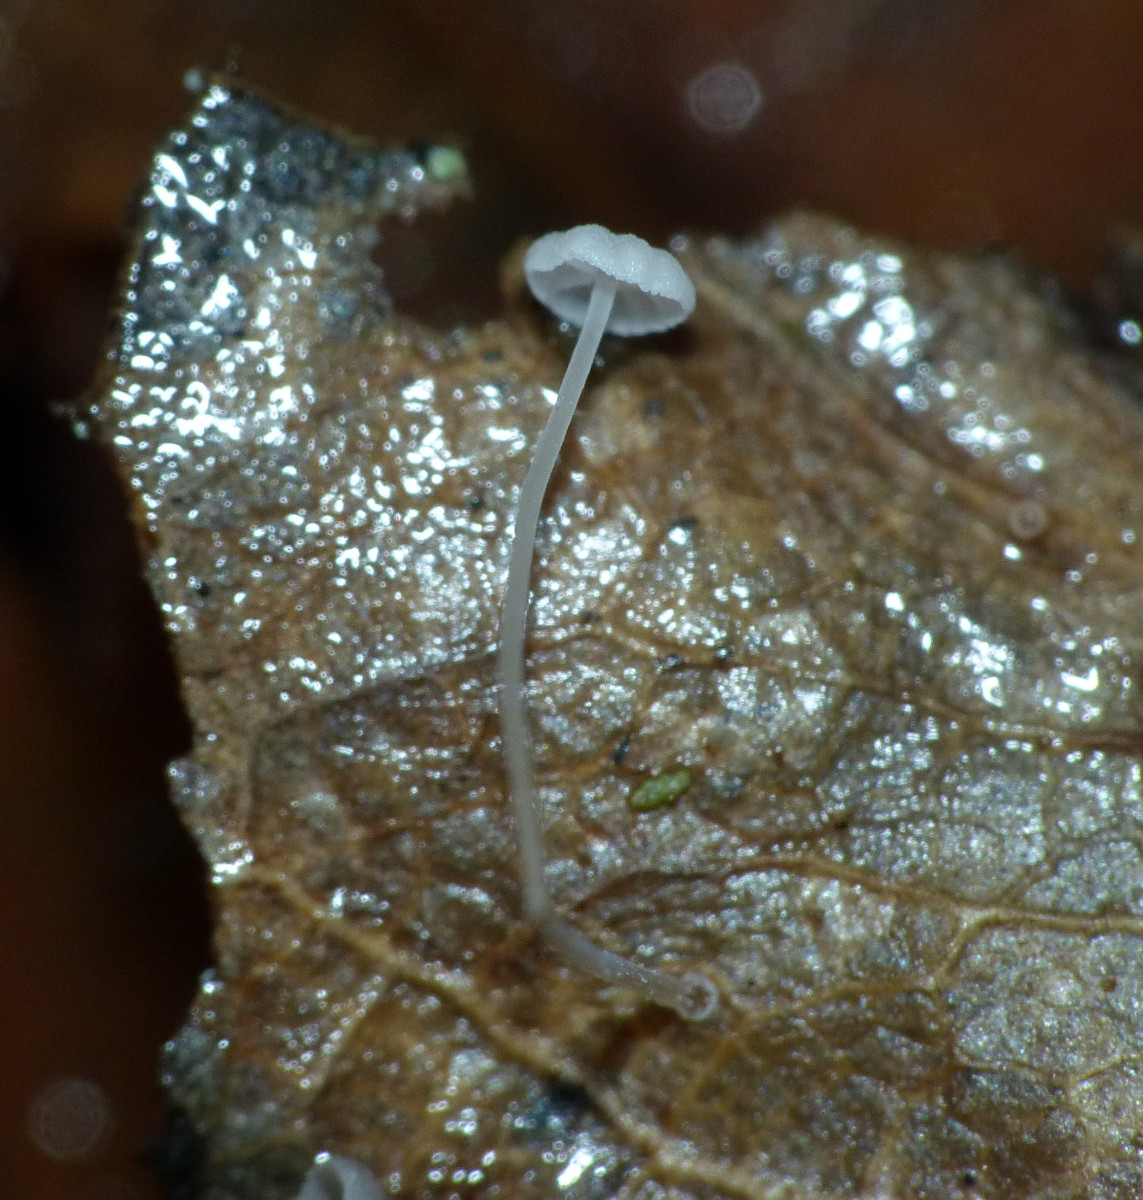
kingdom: Fungi
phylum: Basidiomycota
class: Agaricomycetes
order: Agaricales
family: Mycenaceae
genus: Mycena
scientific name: Mycena
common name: huesvamp
